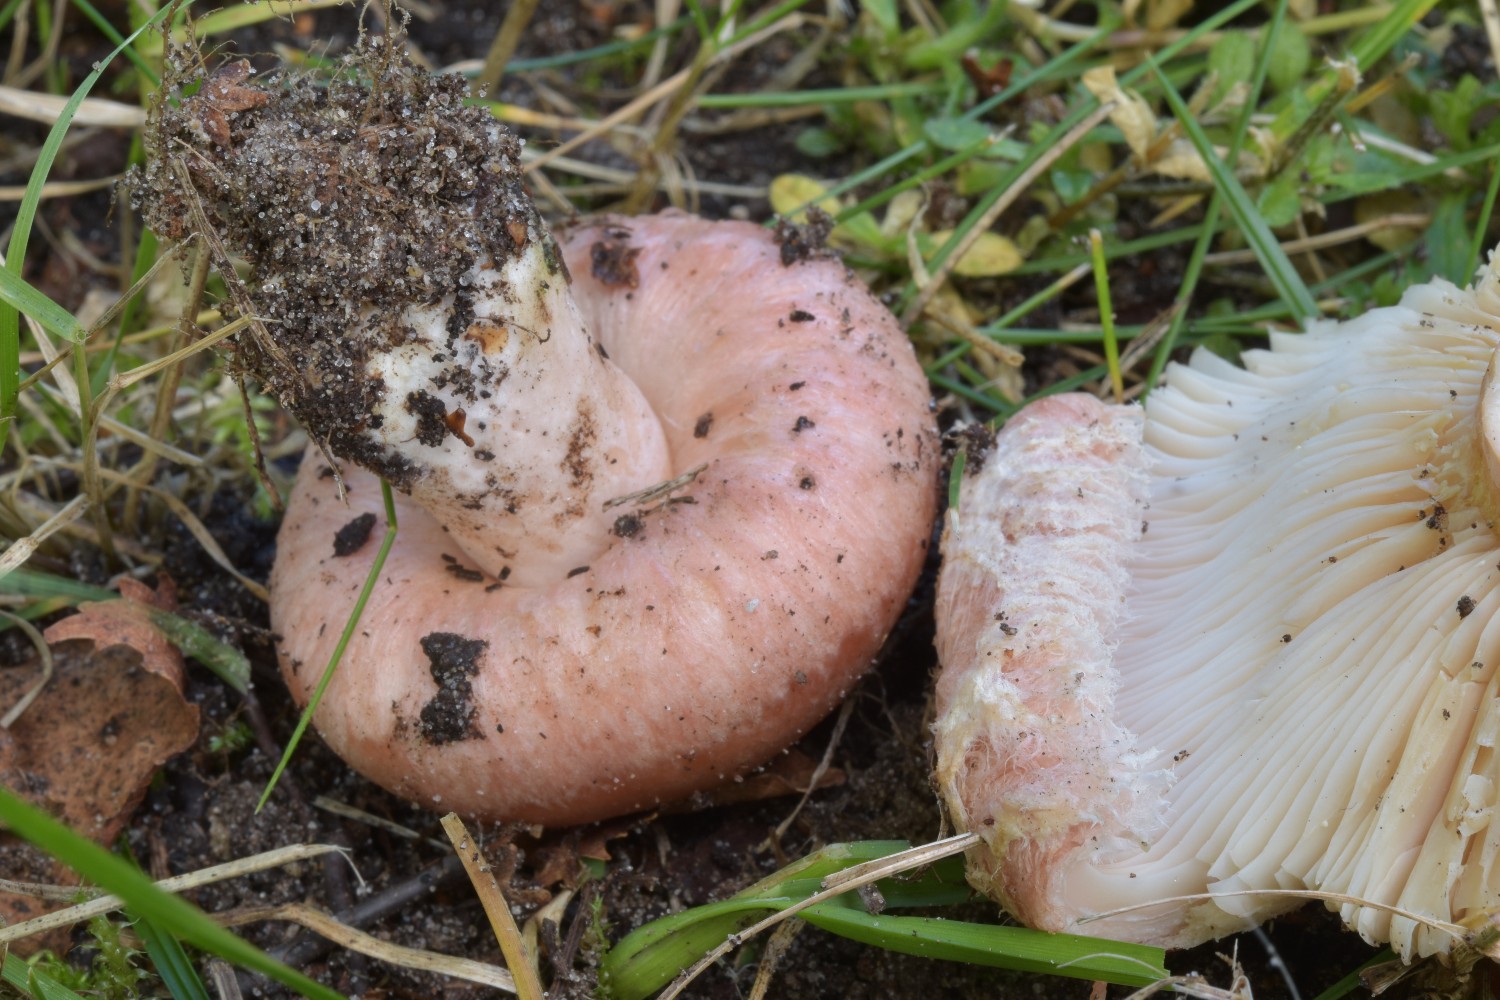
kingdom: Fungi
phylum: Basidiomycota
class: Agaricomycetes
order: Russulales
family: Russulaceae
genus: Lactarius
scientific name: Lactarius torminosus
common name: skægget mælkehat
